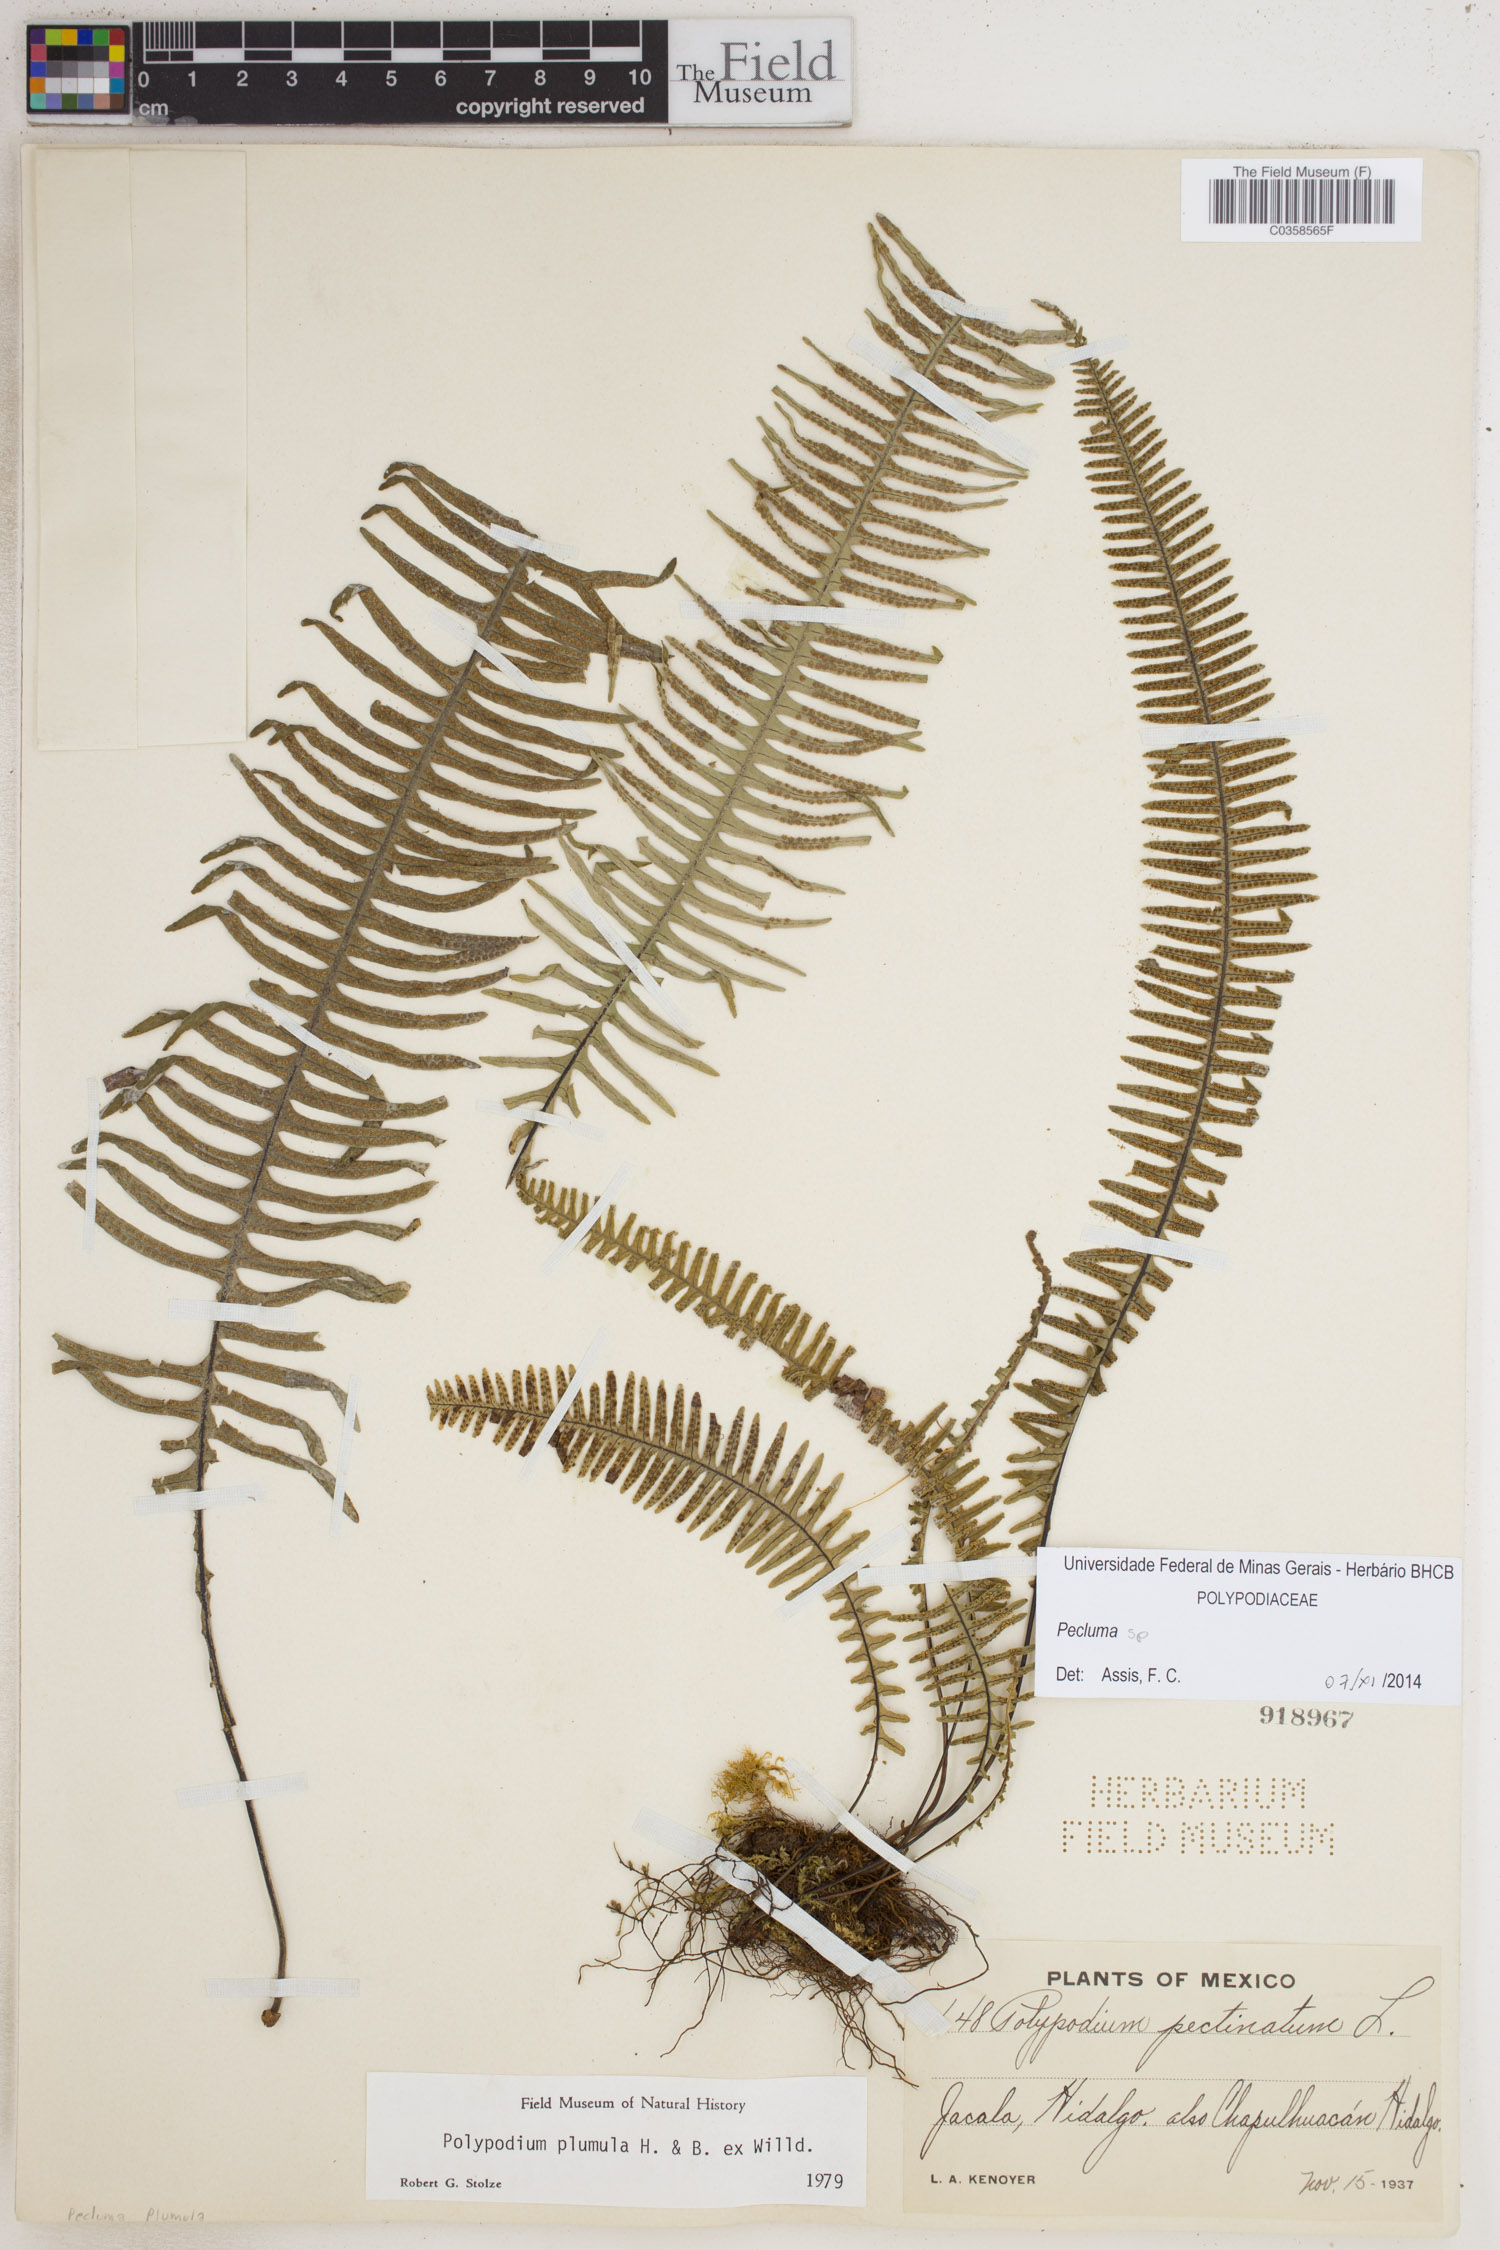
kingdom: Plantae
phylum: Tracheophyta
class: Polypodiopsida
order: Polypodiales
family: Polypodiaceae
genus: Pecluma
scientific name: Pecluma
